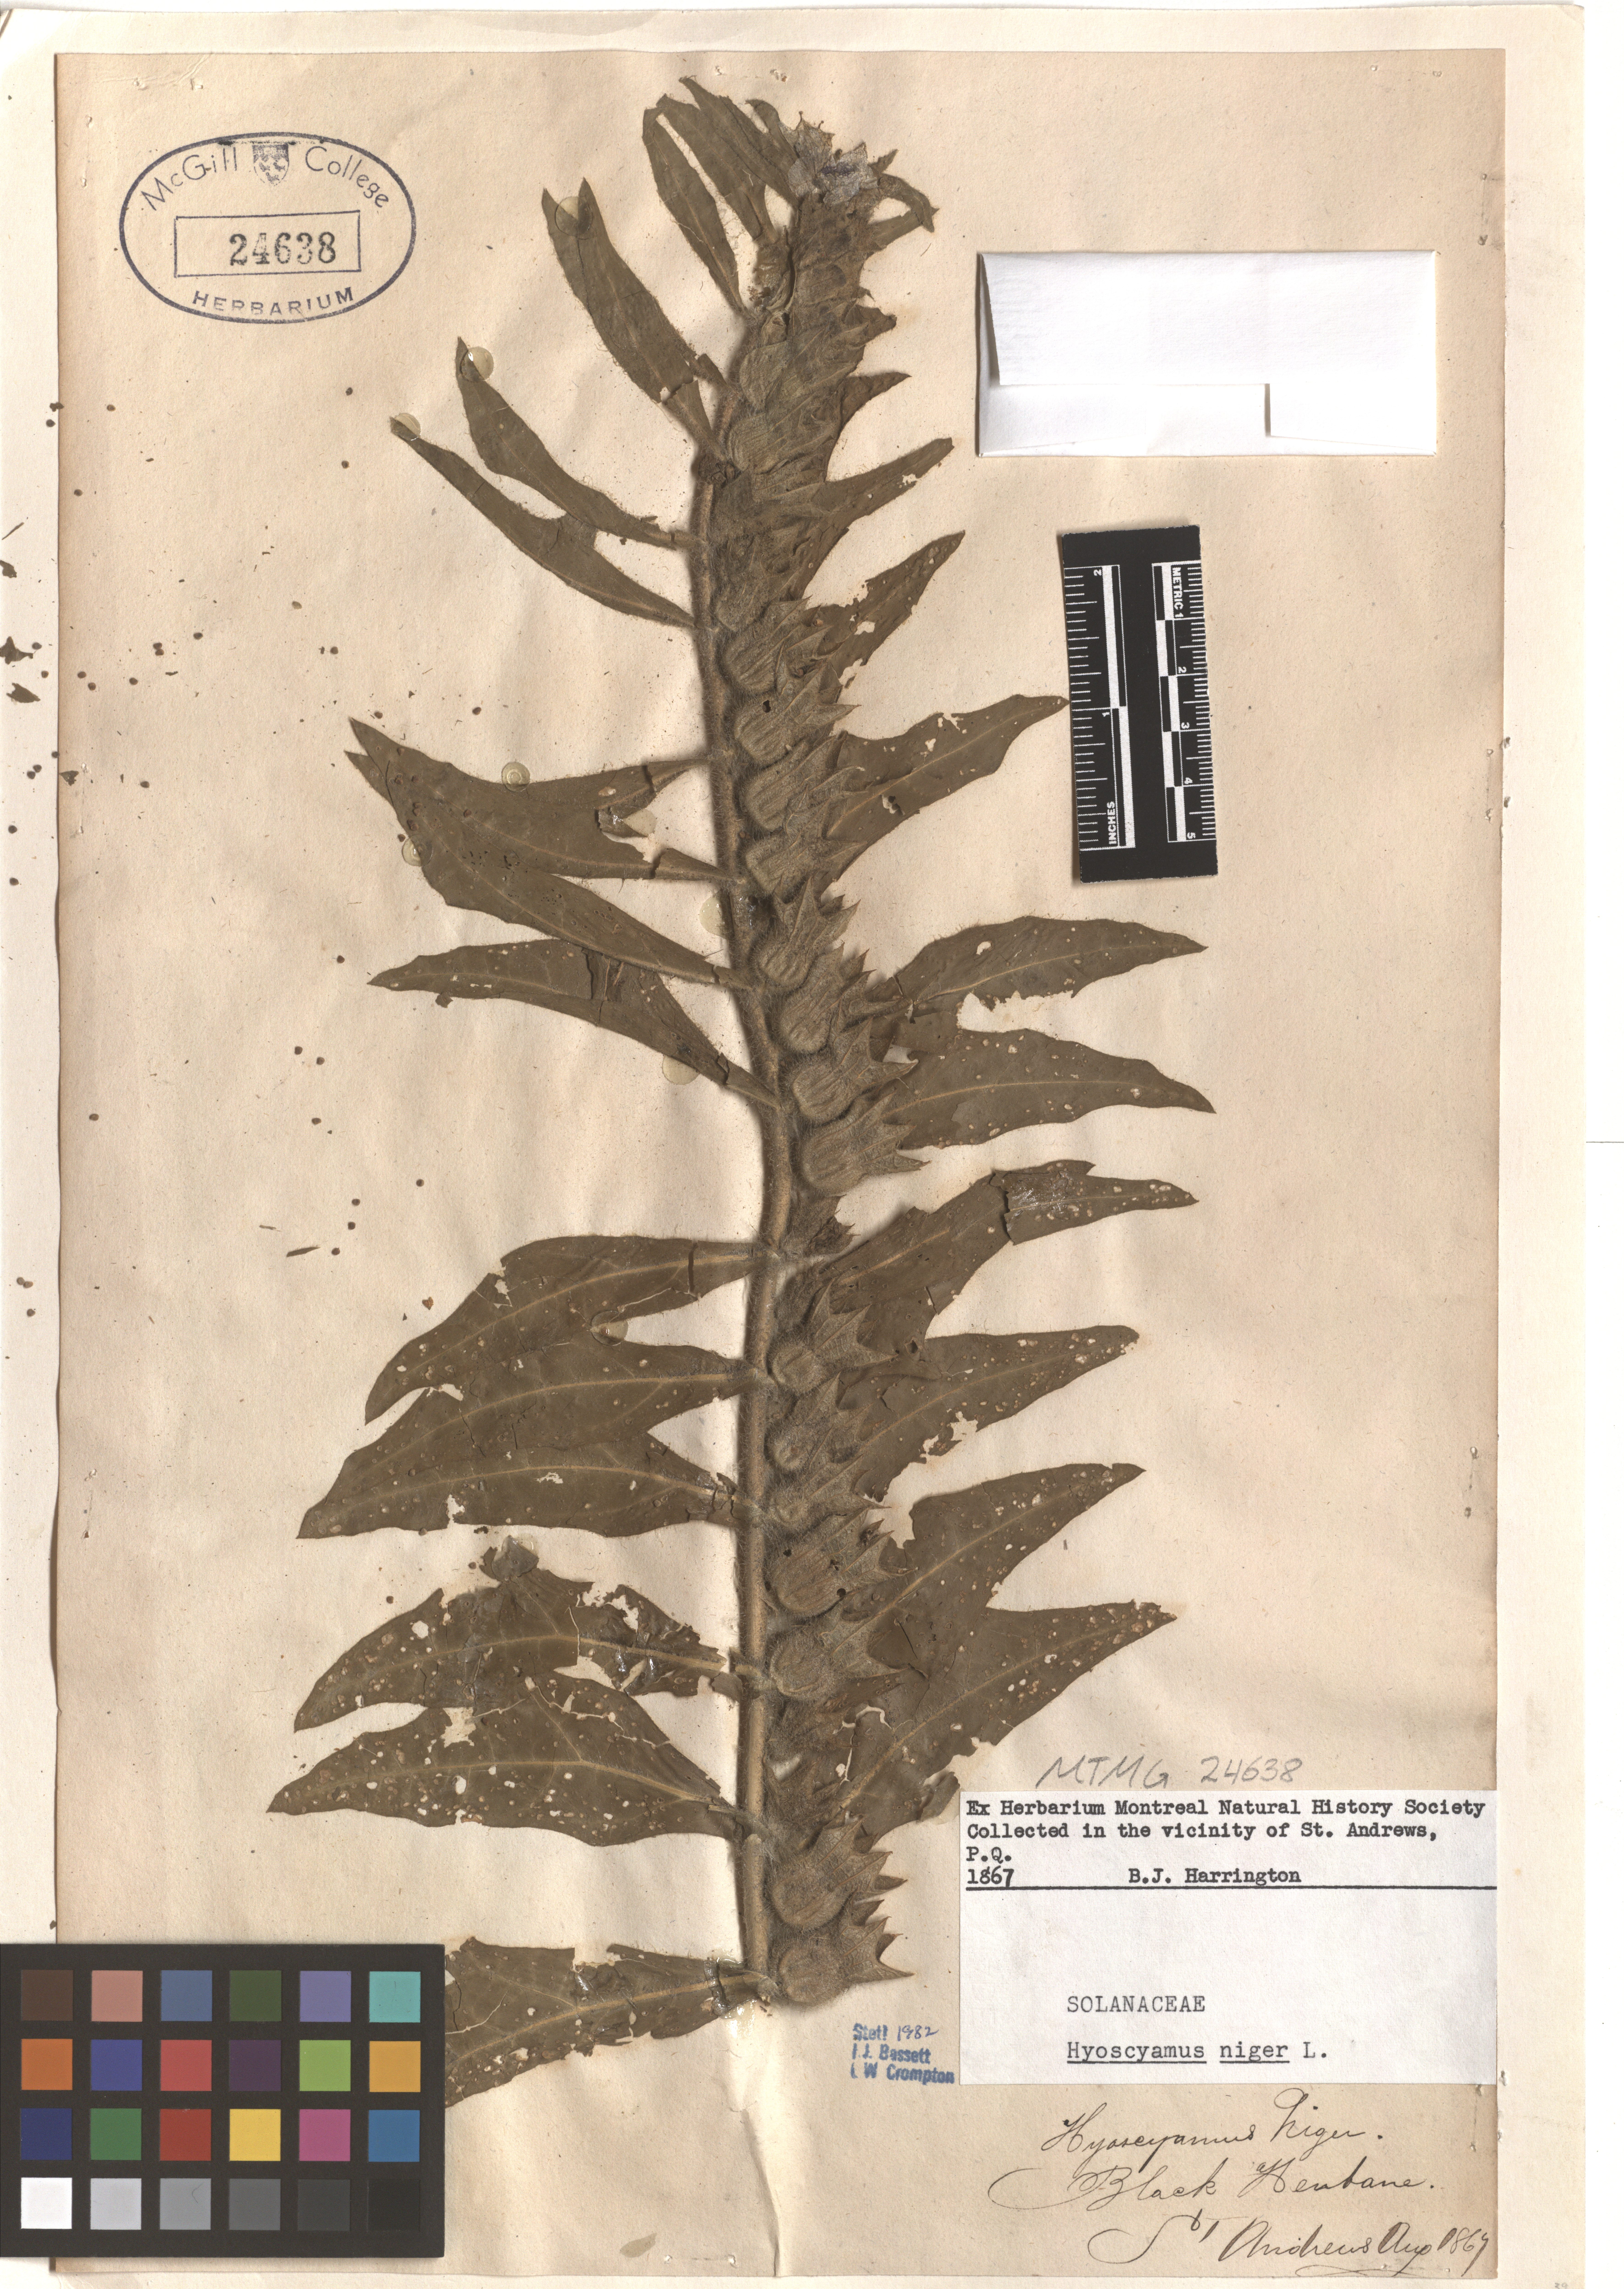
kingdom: Plantae
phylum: Tracheophyta
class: Magnoliopsida
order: Solanales
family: Solanaceae
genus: Hyoscyamus
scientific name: Hyoscyamus niger
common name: Henbane
